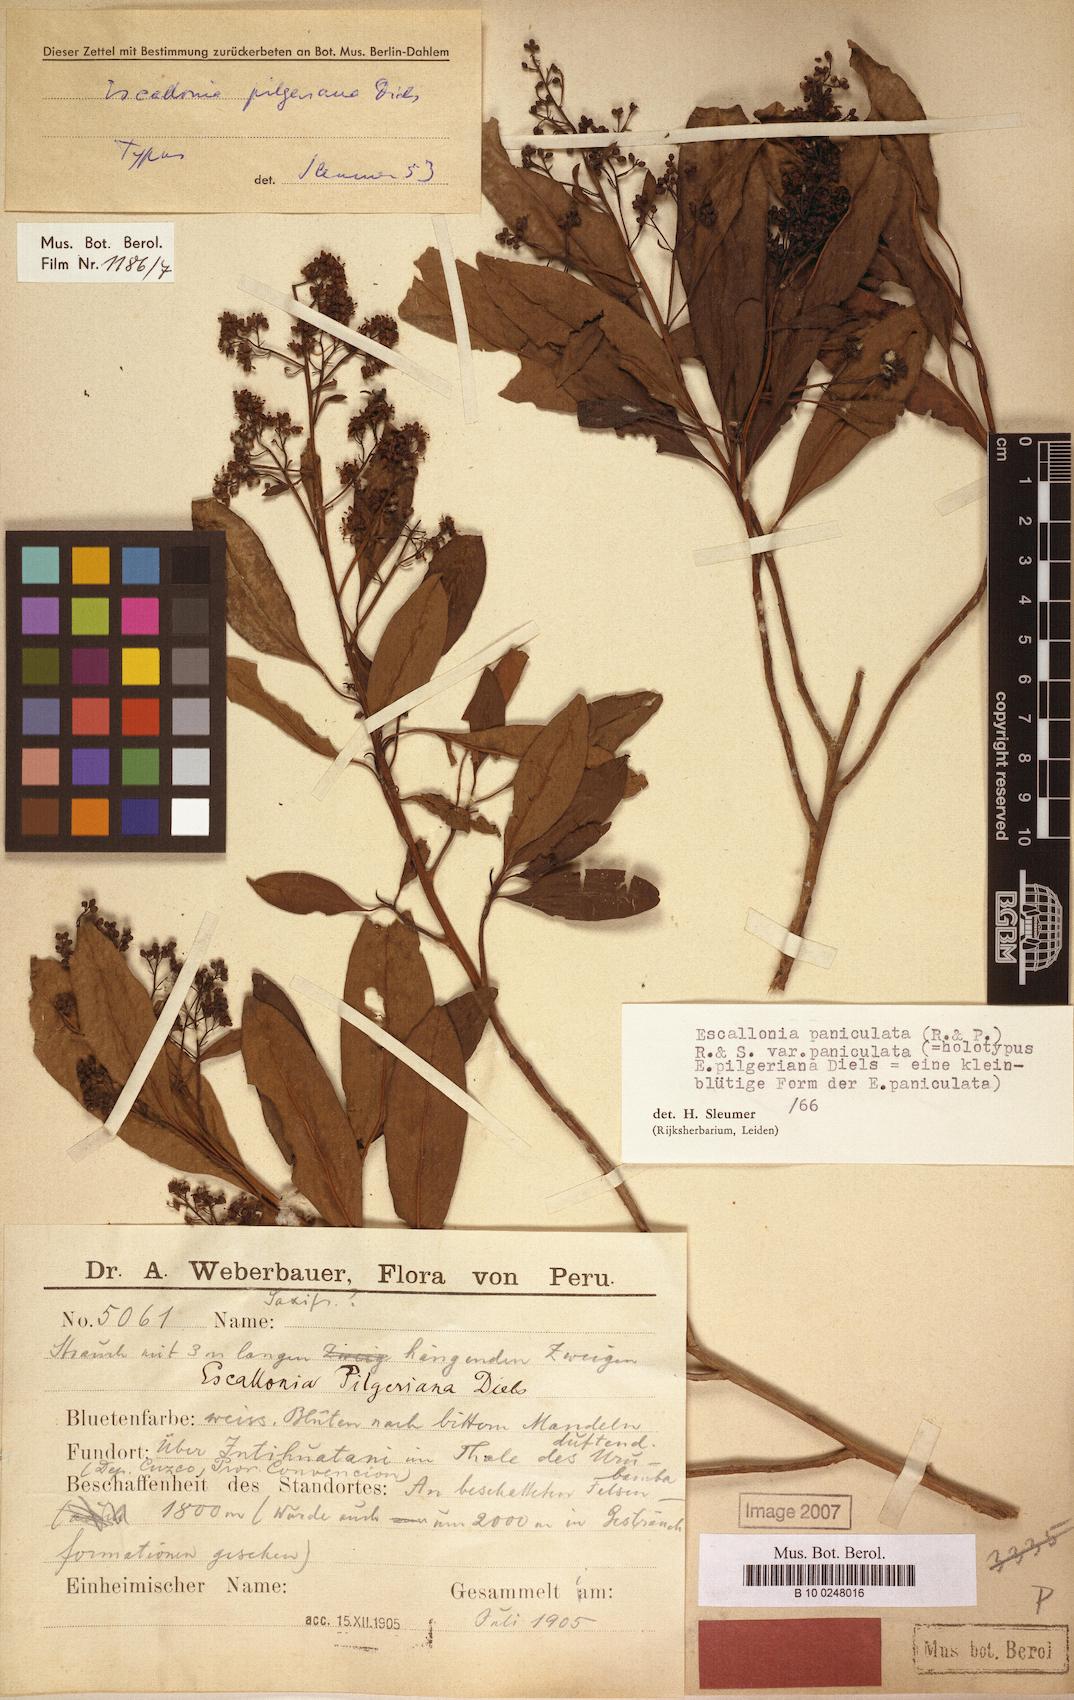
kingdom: Plantae
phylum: Tracheophyta
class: Magnoliopsida
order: Escalloniales
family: Escalloniaceae
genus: Escallonia
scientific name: Escallonia paniculata
